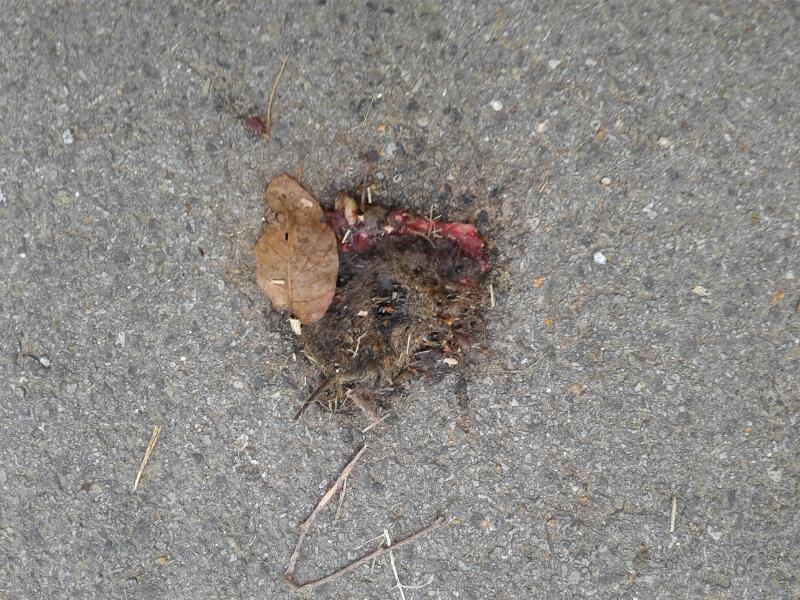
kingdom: Animalia
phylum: Chordata
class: Mammalia
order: Rodentia
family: Cricetidae
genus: Microtus
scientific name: Microtus
